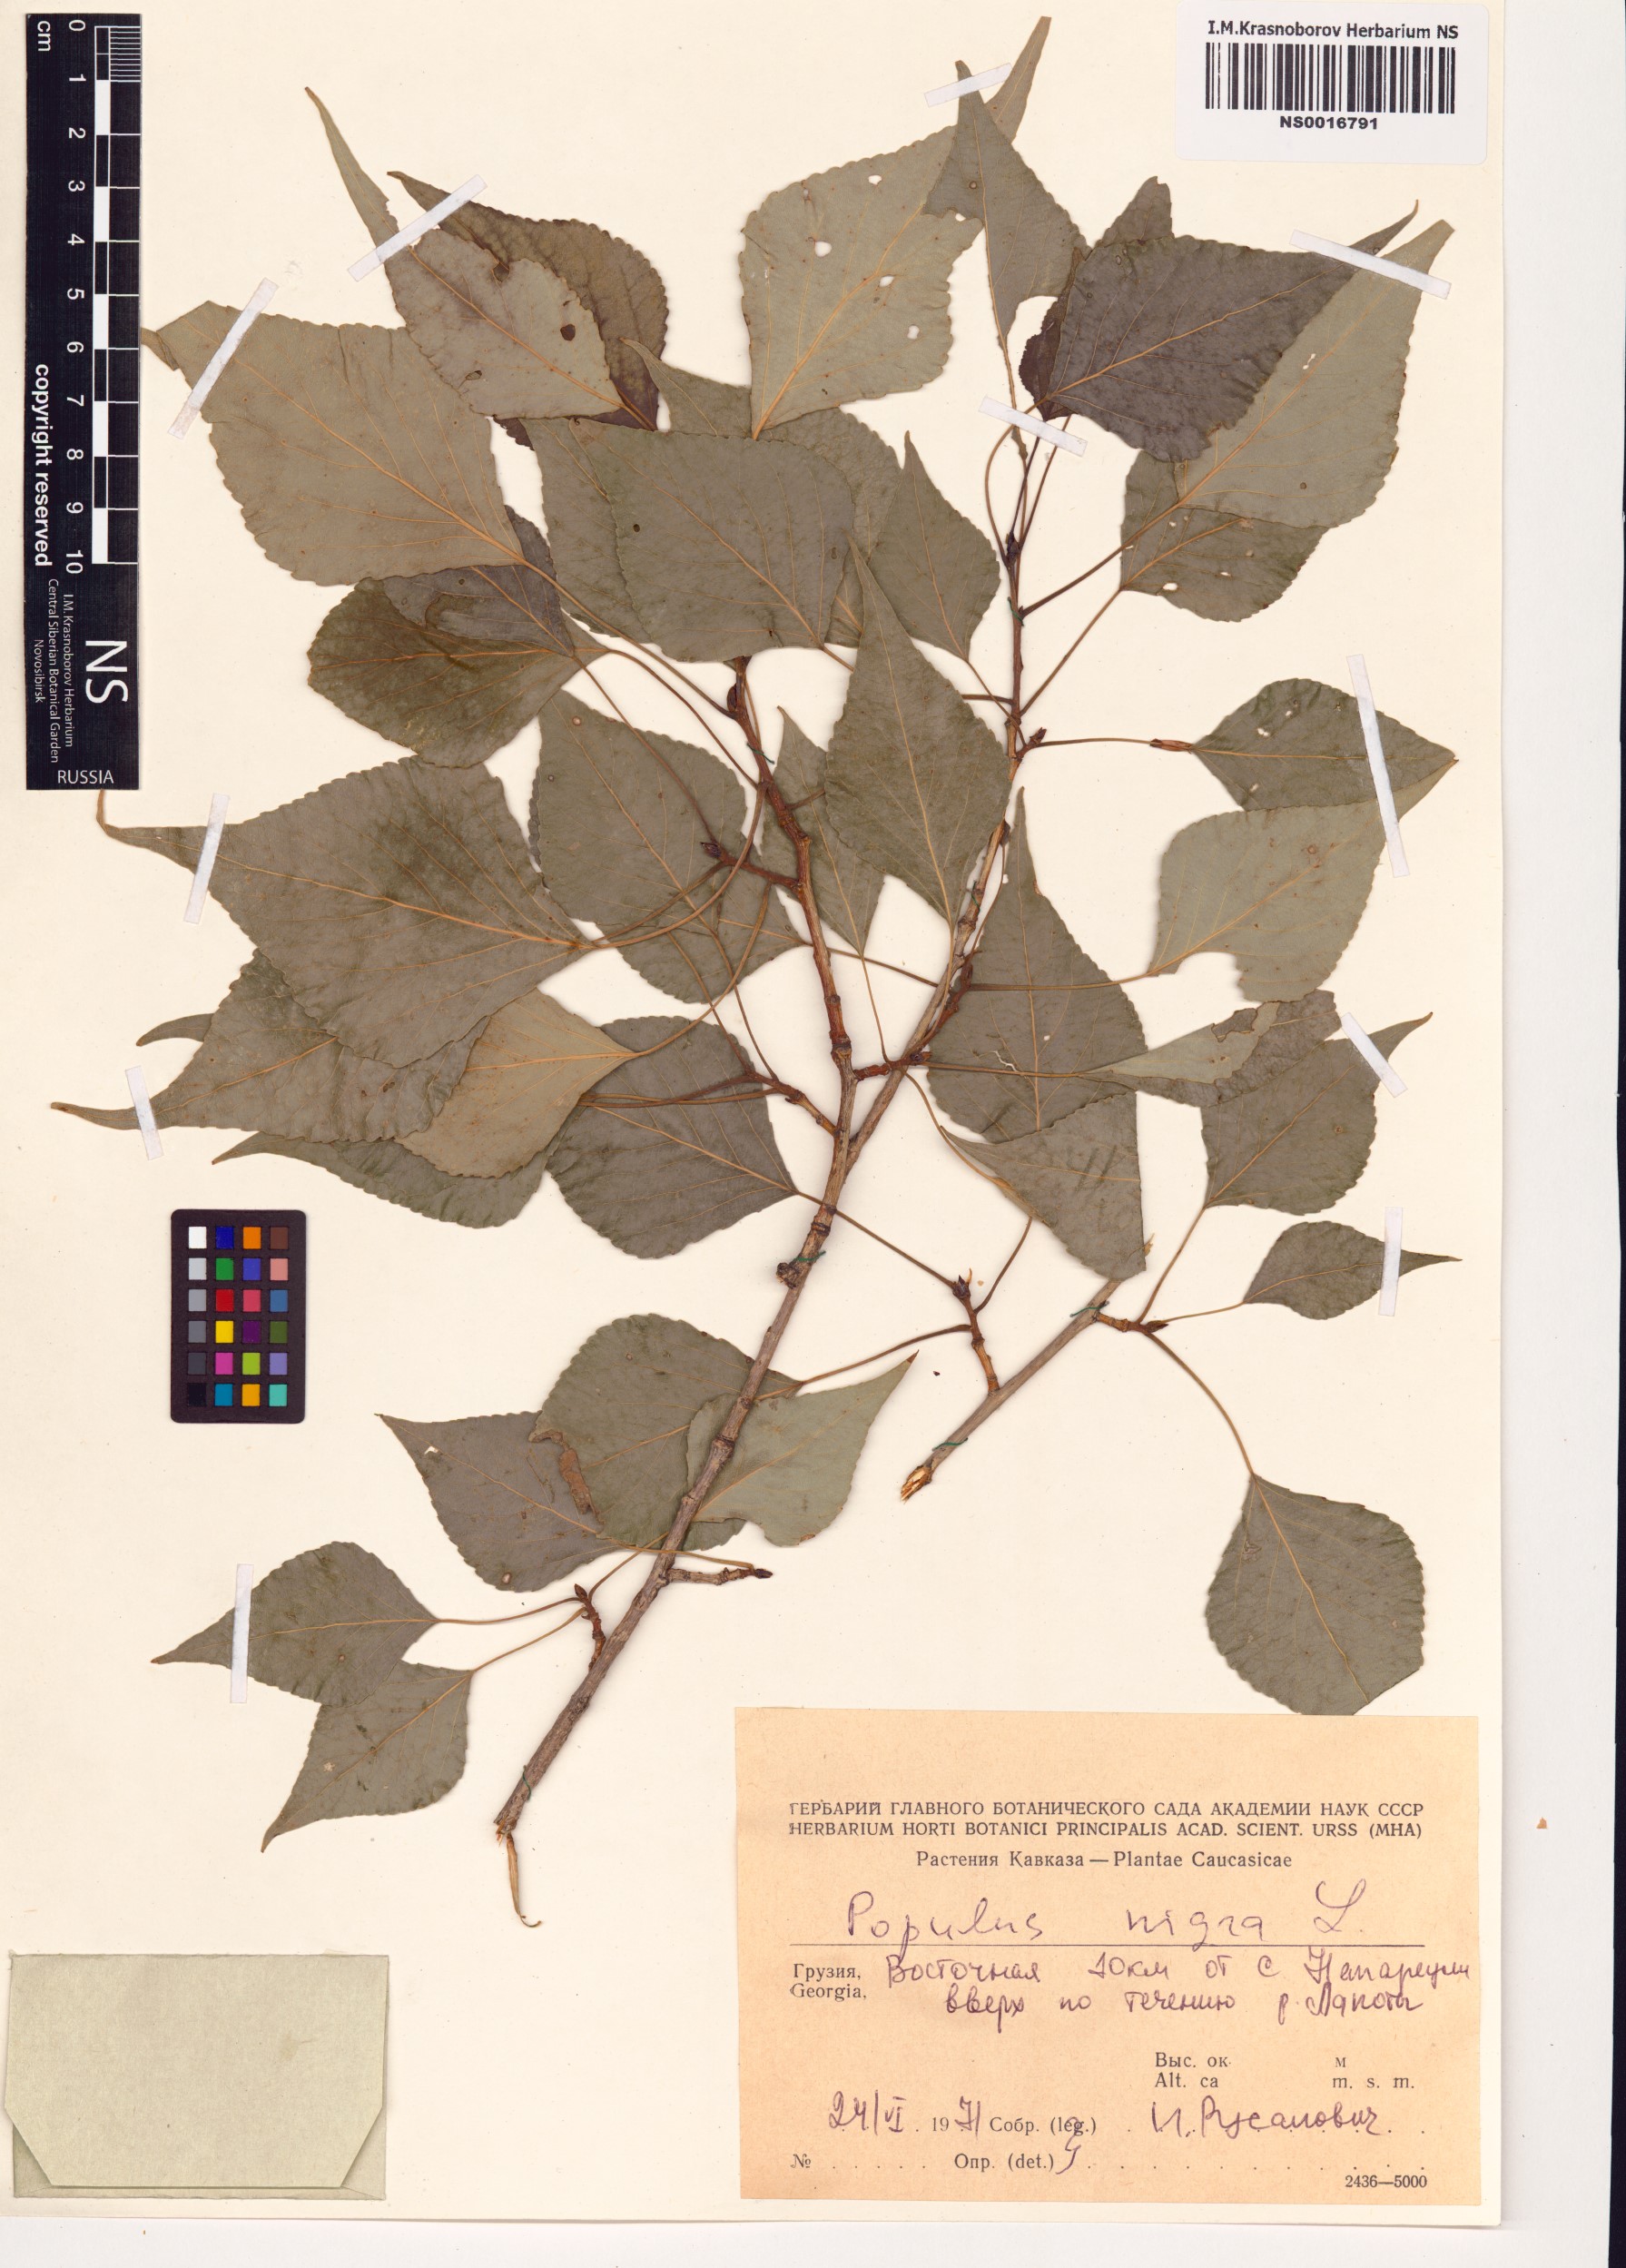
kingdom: Plantae
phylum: Tracheophyta
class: Magnoliopsida
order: Malpighiales
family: Salicaceae
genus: Populus
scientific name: Populus nigra
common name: Black poplar
